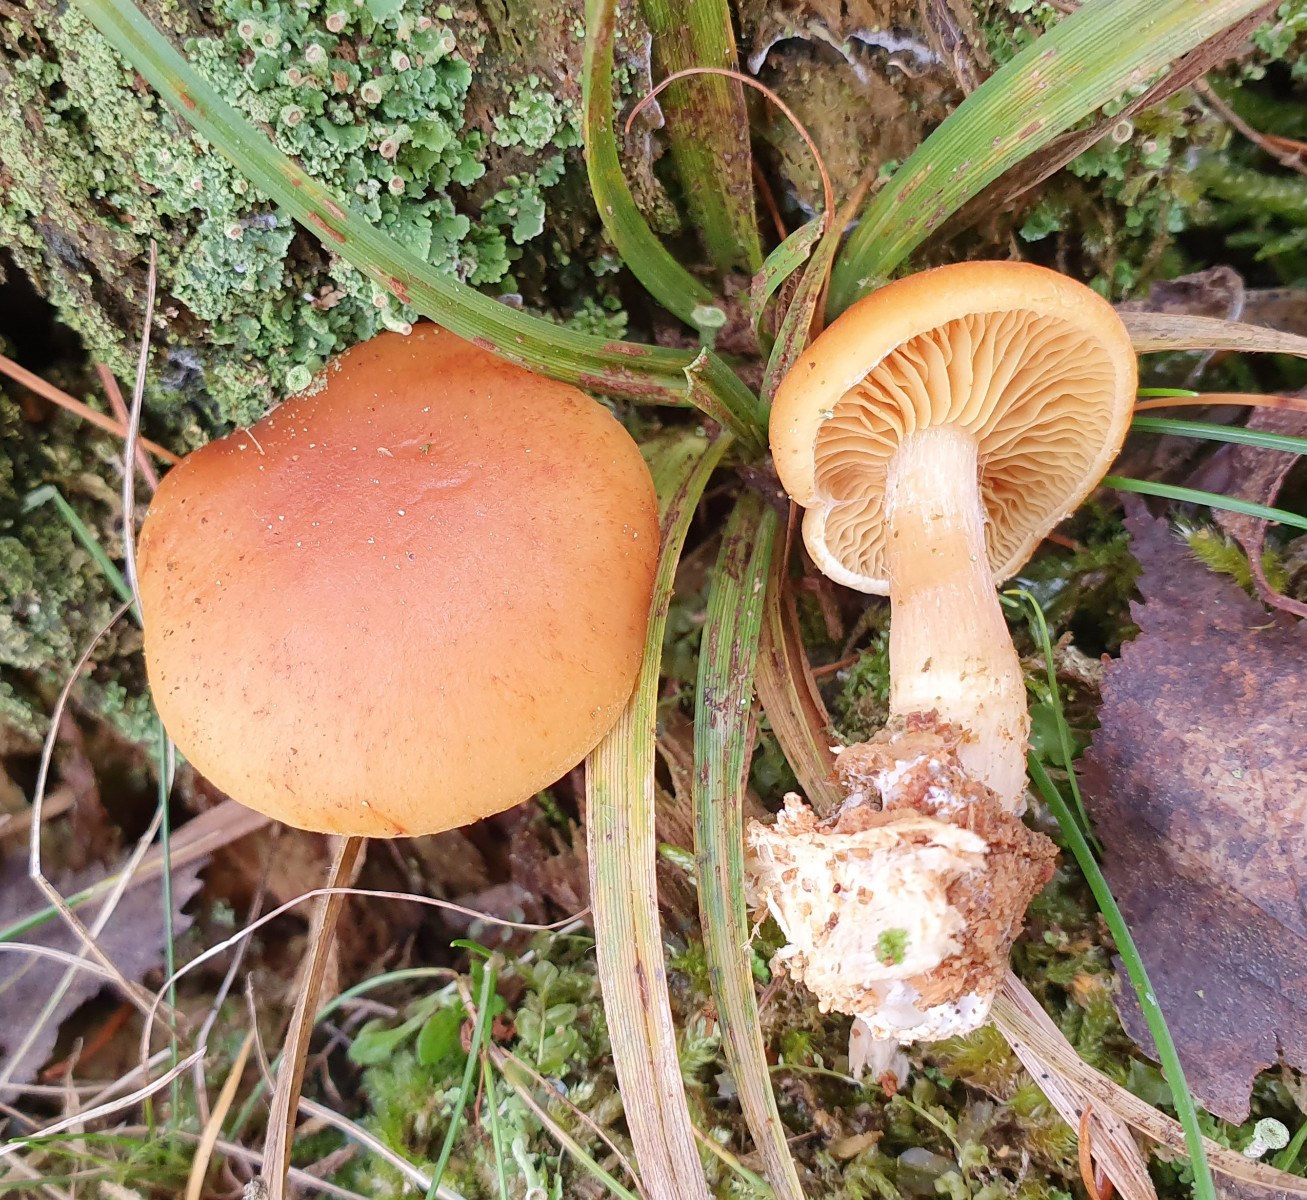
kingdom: Fungi
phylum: Basidiomycota
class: Agaricomycetes
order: Agaricales
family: Hymenogastraceae
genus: Gymnopilus
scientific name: Gymnopilus penetrans
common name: plettet flammehat
